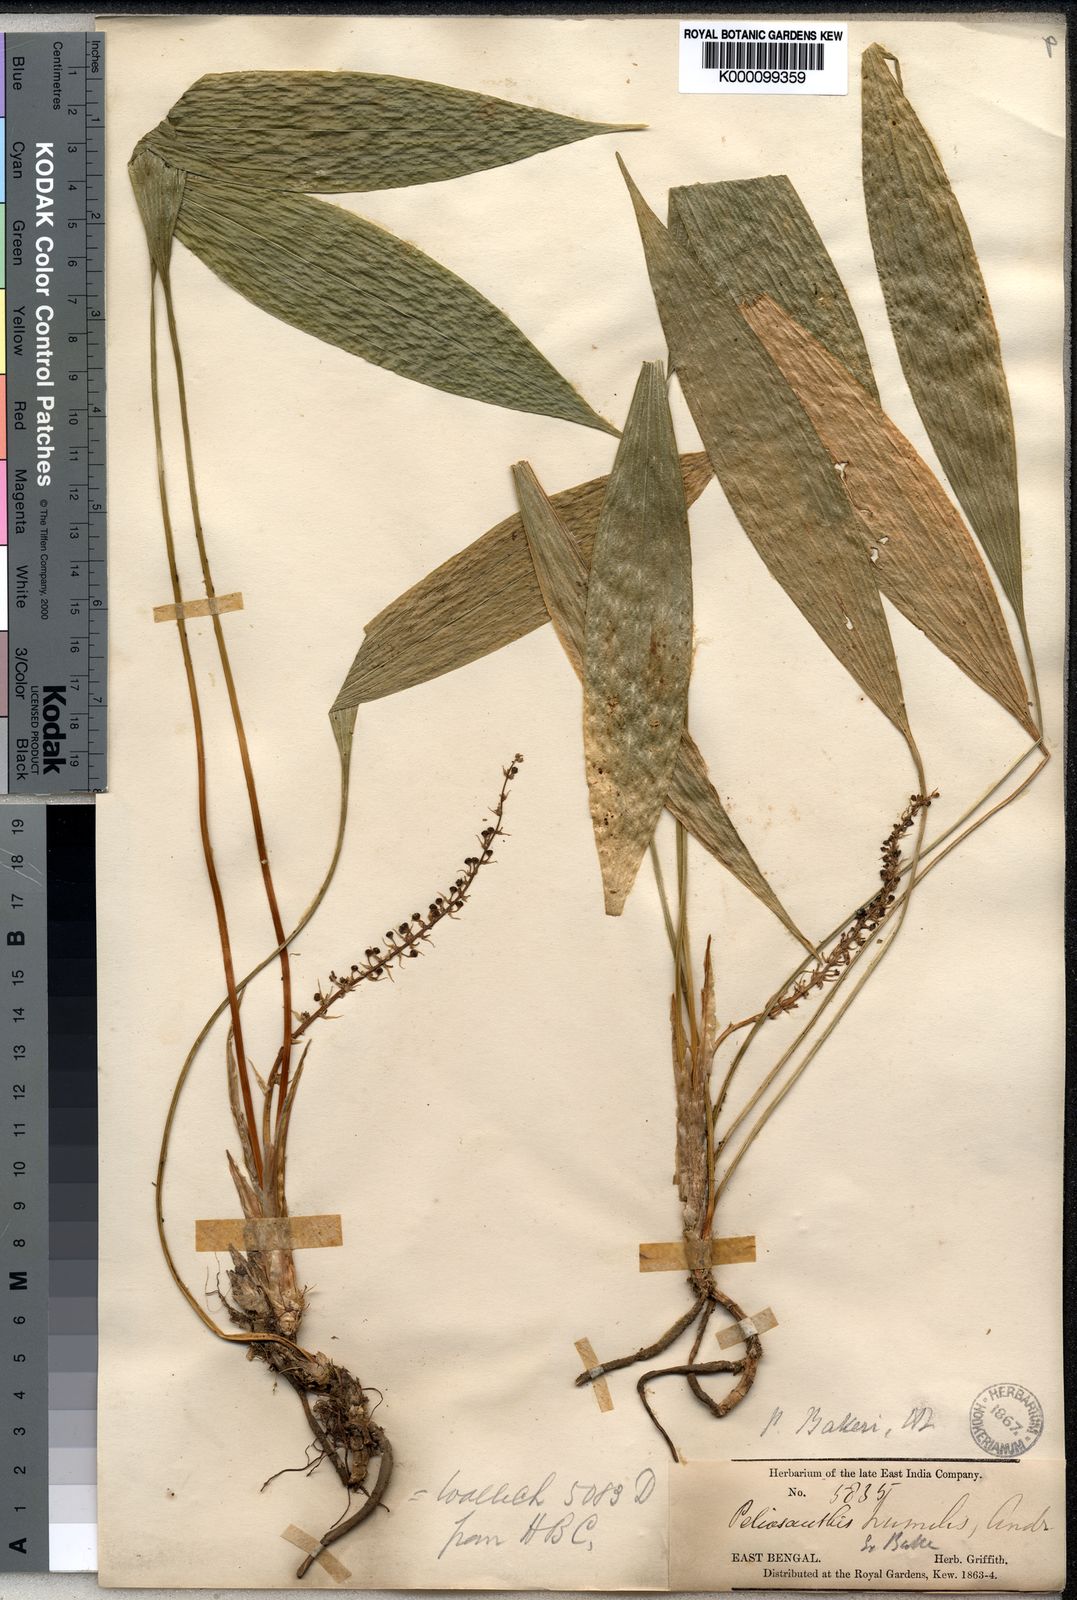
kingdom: Plantae
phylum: Tracheophyta
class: Liliopsida
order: Asparagales
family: Asparagaceae
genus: Peliosanthes
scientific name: Peliosanthes griffithii
